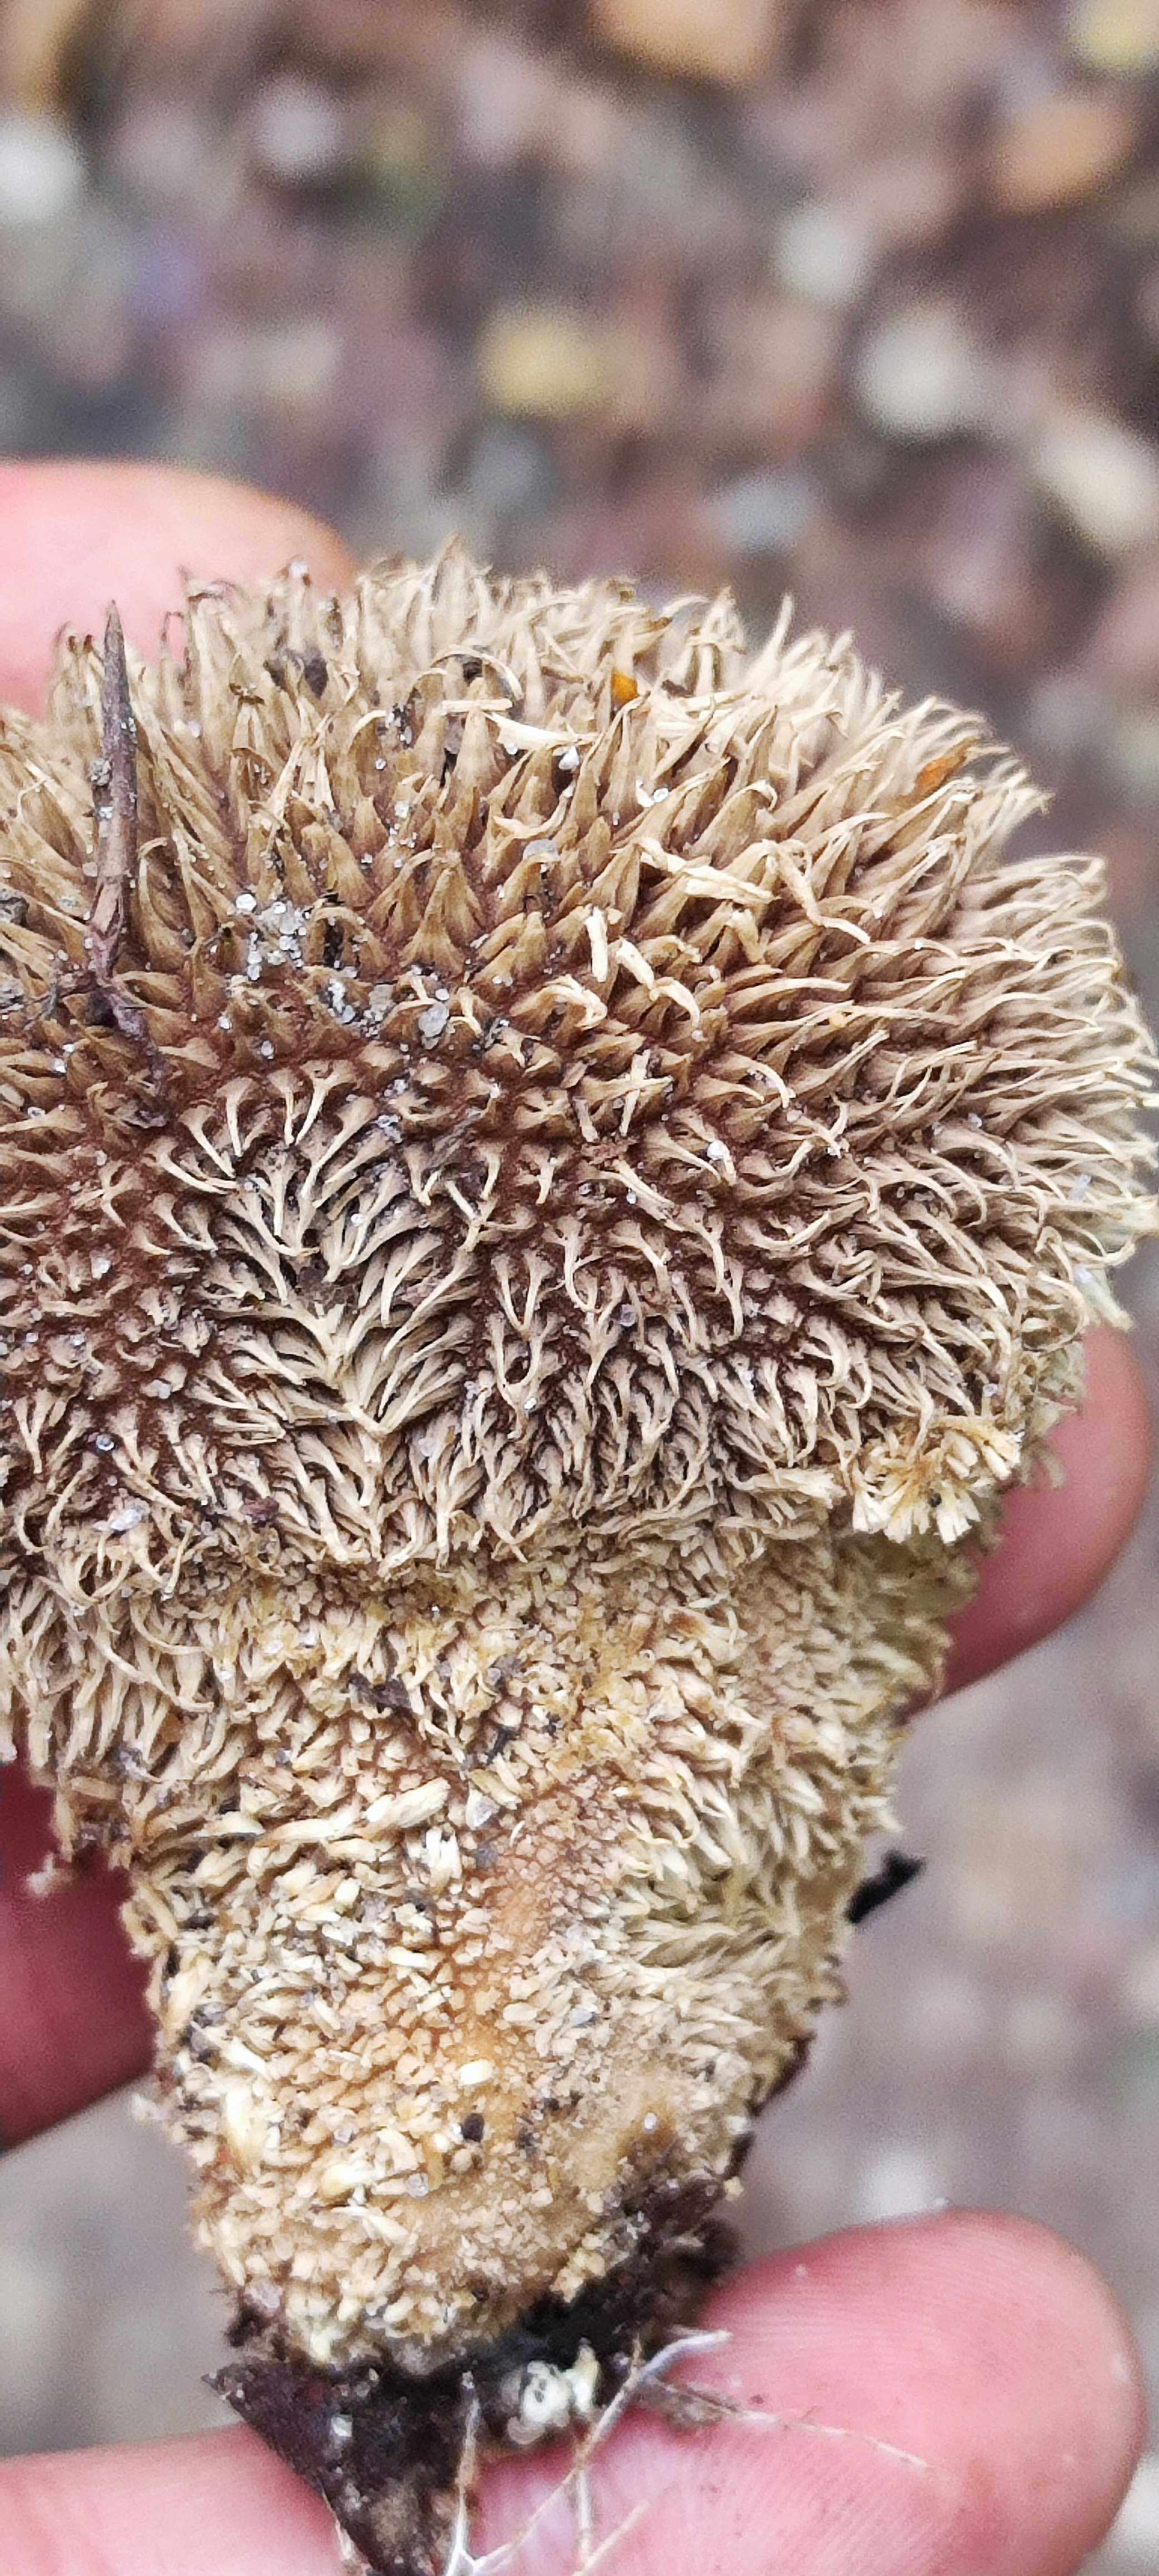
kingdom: Fungi
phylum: Basidiomycota
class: Agaricomycetes
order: Agaricales
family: Lycoperdaceae
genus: Lycoperdon
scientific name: Lycoperdon echinatum
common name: pindsvine-støvbold
